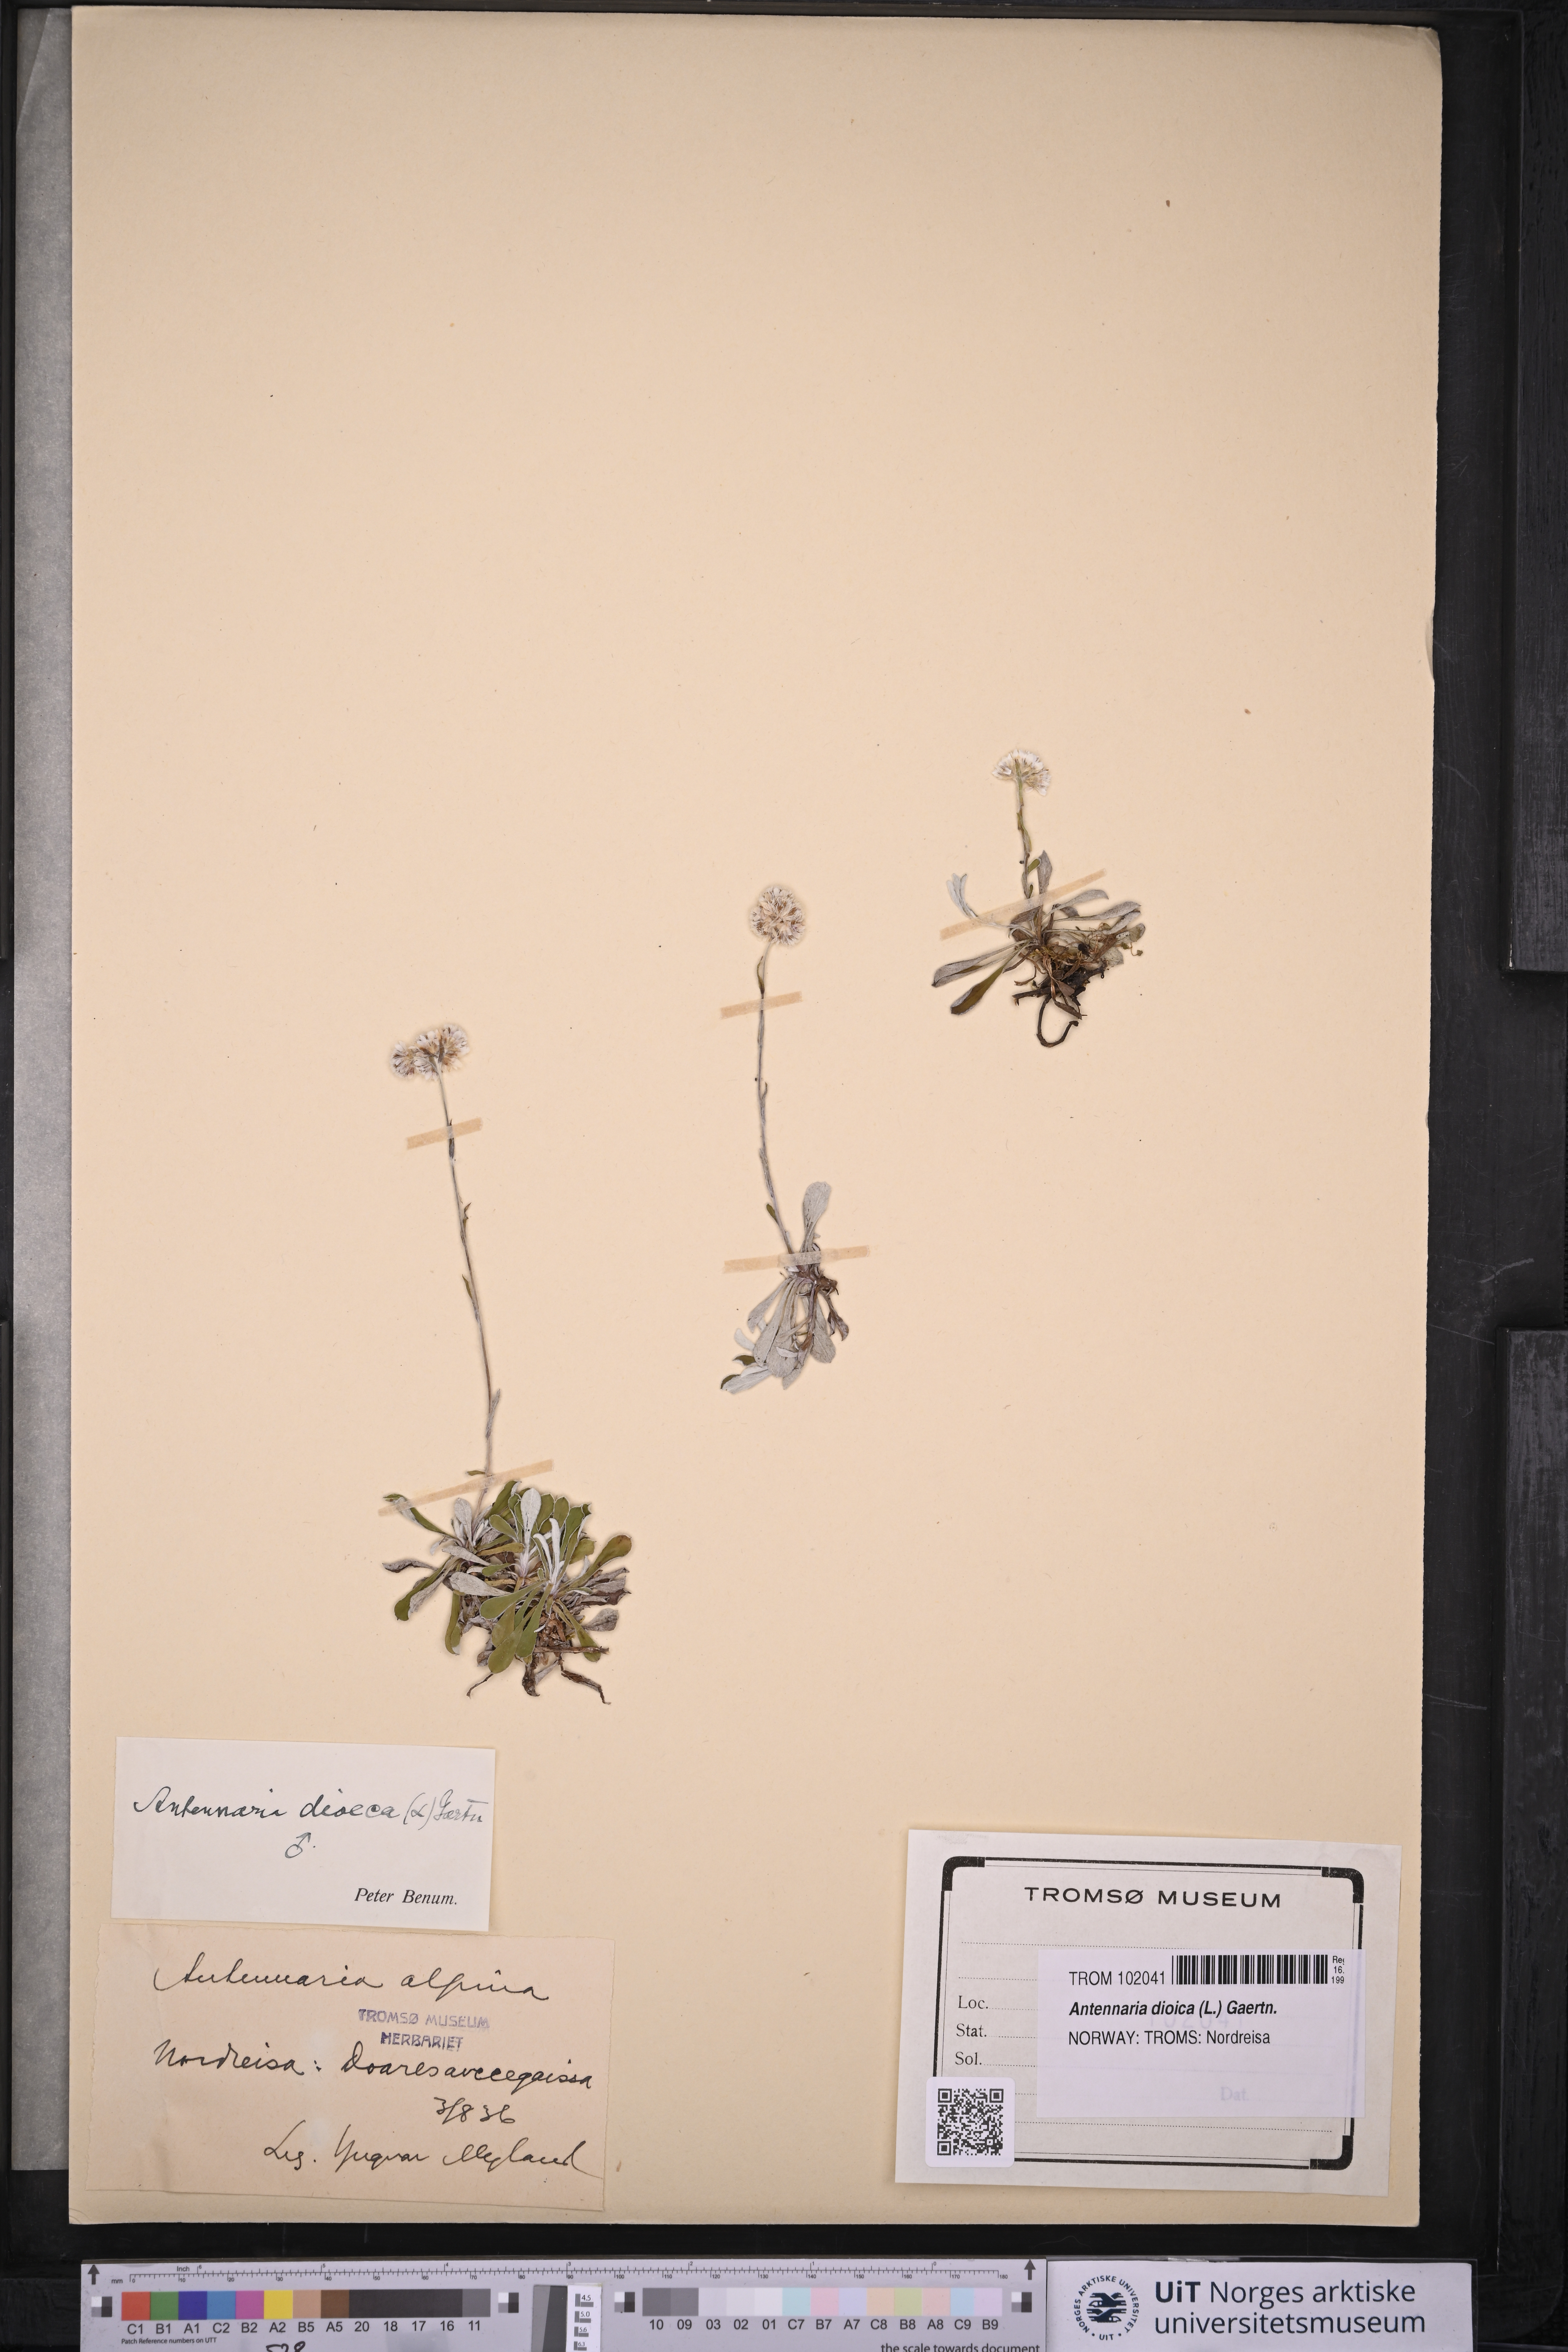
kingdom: Plantae
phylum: Tracheophyta
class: Magnoliopsida
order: Asterales
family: Asteraceae
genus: Antennaria
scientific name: Antennaria dioica
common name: Mountain everlasting
